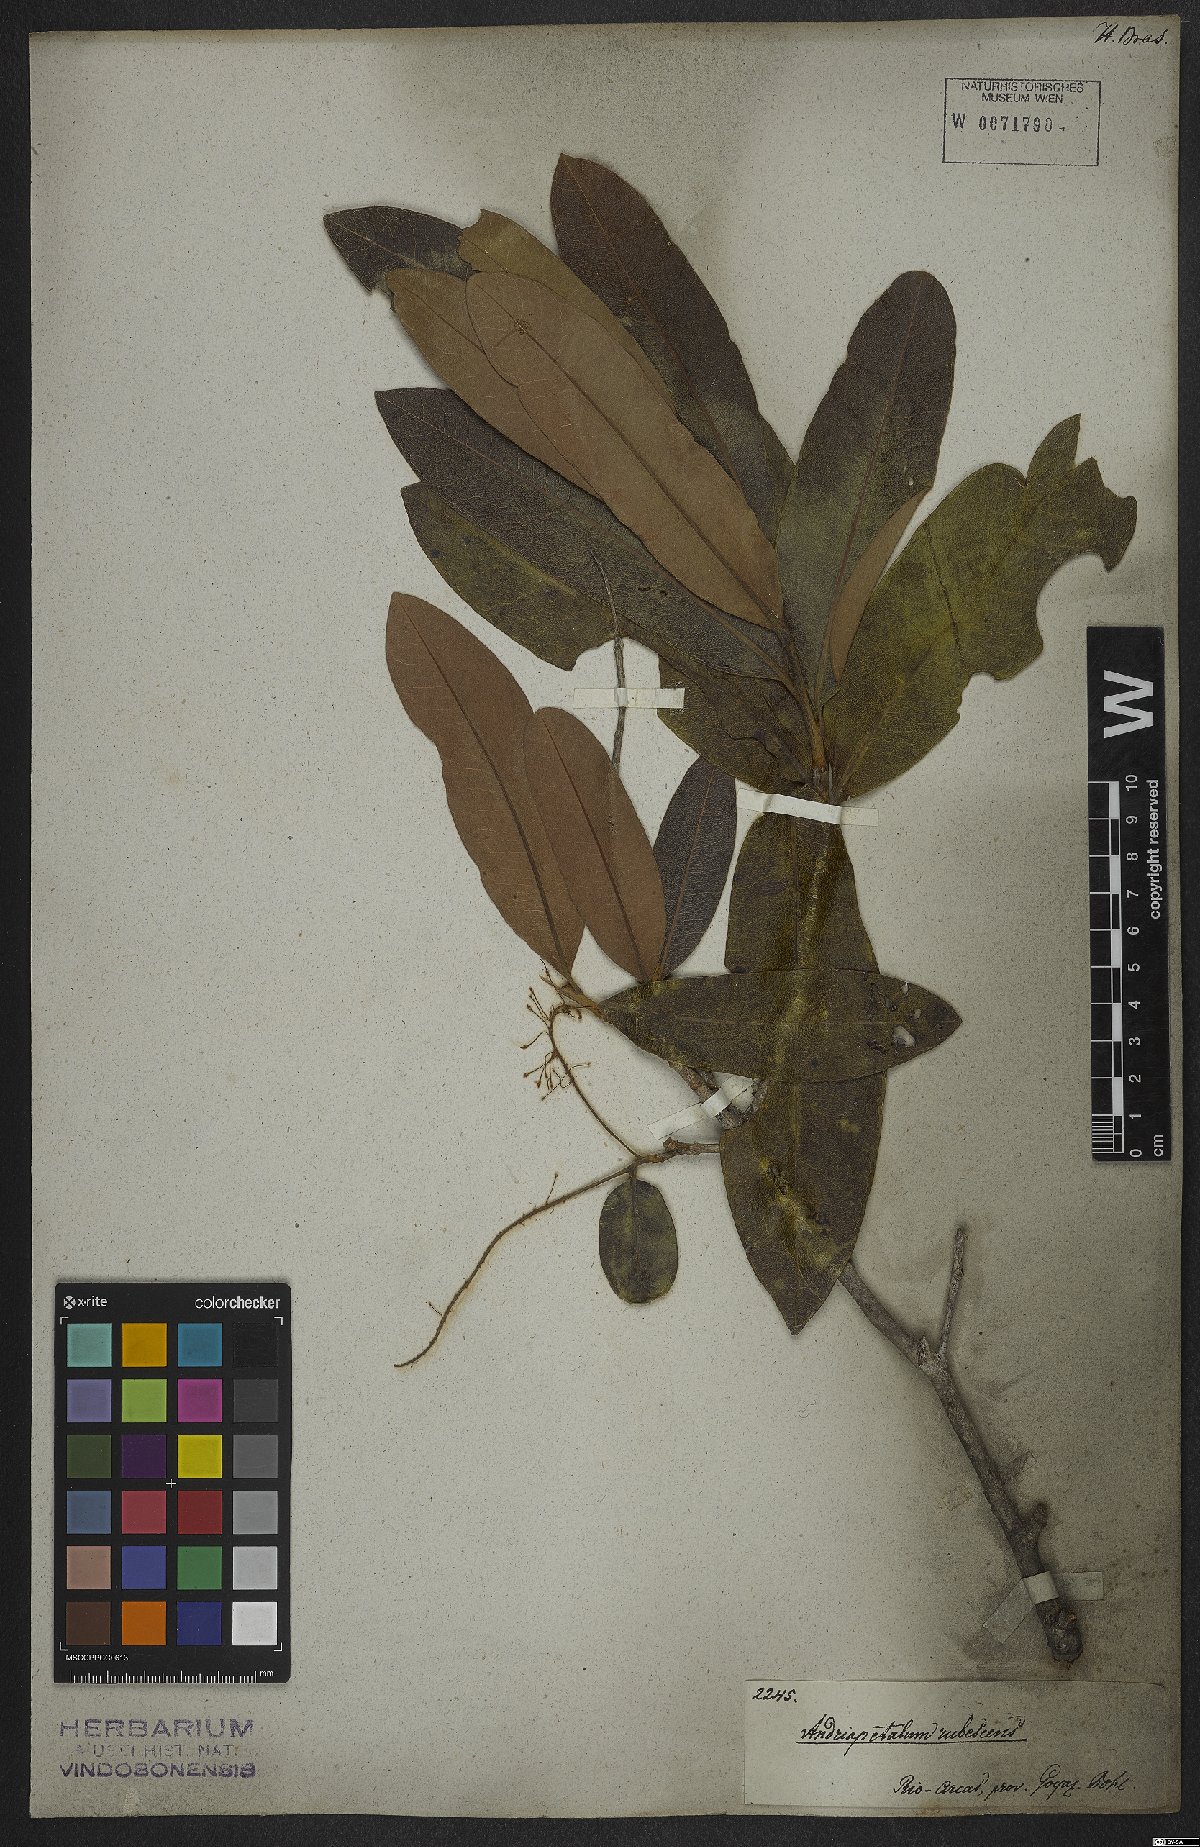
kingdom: Plantae
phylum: Tracheophyta
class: Magnoliopsida
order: Proteales
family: Proteaceae
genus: Panopsis
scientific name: Panopsis rubescens
